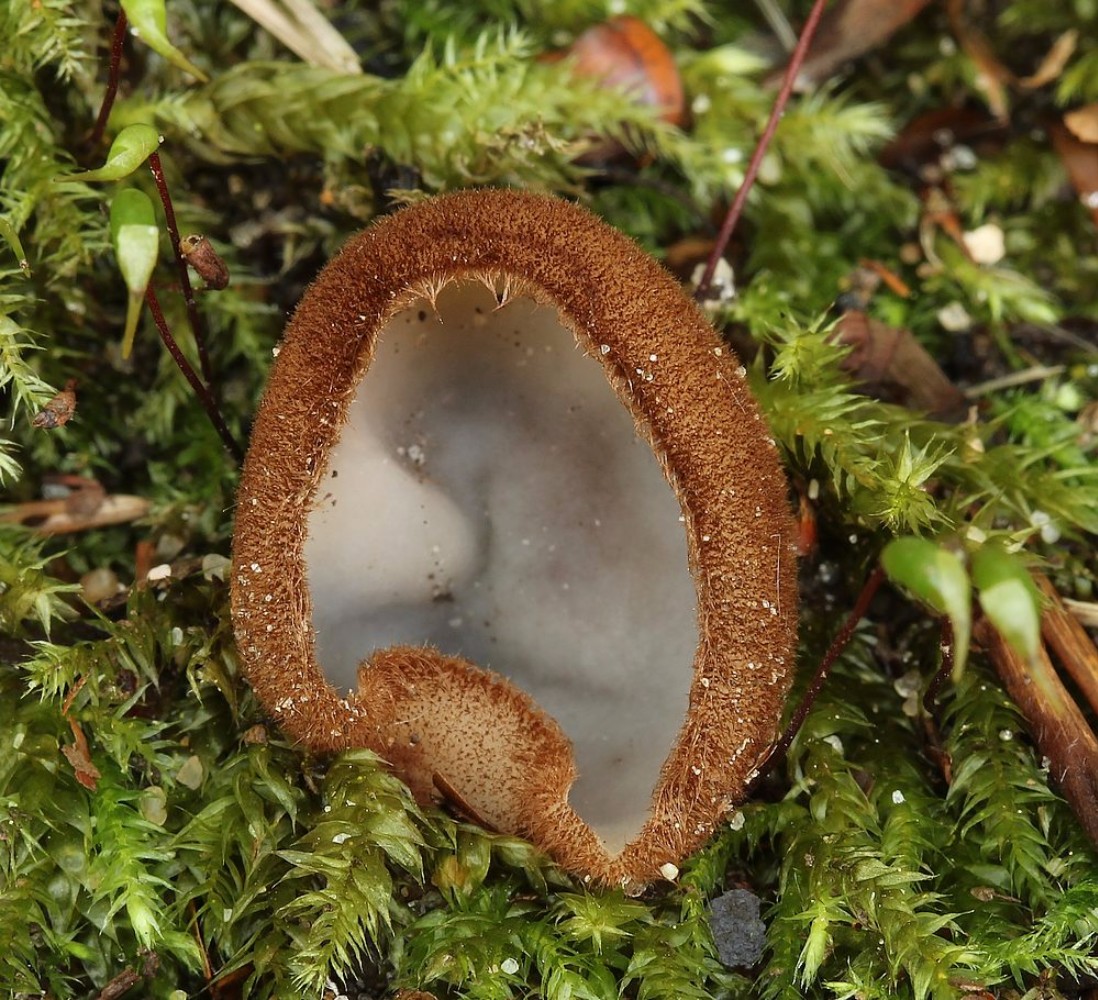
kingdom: Fungi
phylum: Ascomycota
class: Pezizomycetes
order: Pezizales
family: Pyronemataceae
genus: Humaria
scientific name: Humaria hemisphaerica
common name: halvkugleformet børstebæger
